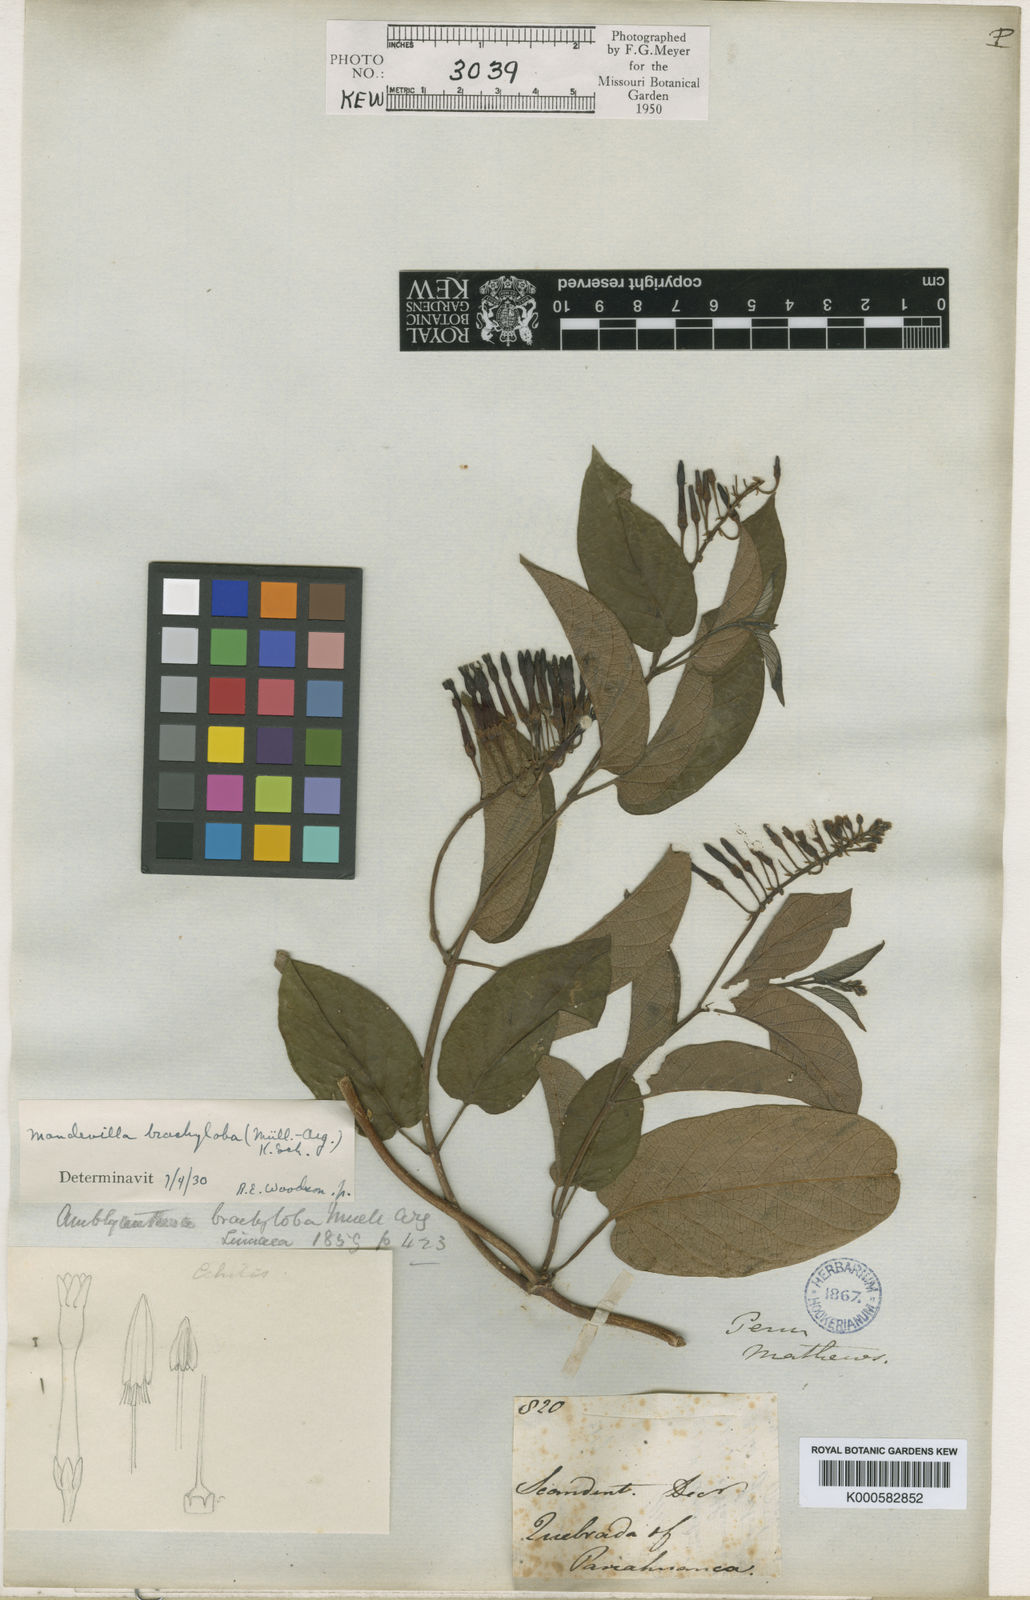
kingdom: Plantae
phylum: Tracheophyta
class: Magnoliopsida
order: Gentianales
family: Apocynaceae
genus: Mandevilla
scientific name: Mandevilla
